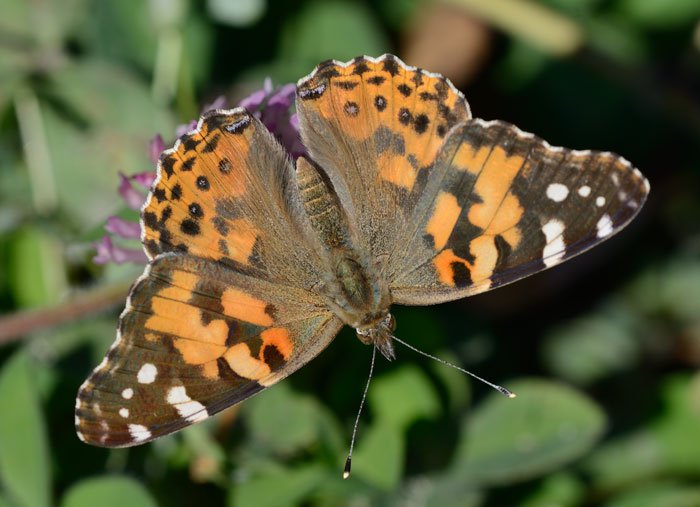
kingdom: Animalia
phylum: Arthropoda
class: Insecta
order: Lepidoptera
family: Nymphalidae
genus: Vanessa
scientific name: Vanessa cardui
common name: Painted Lady
